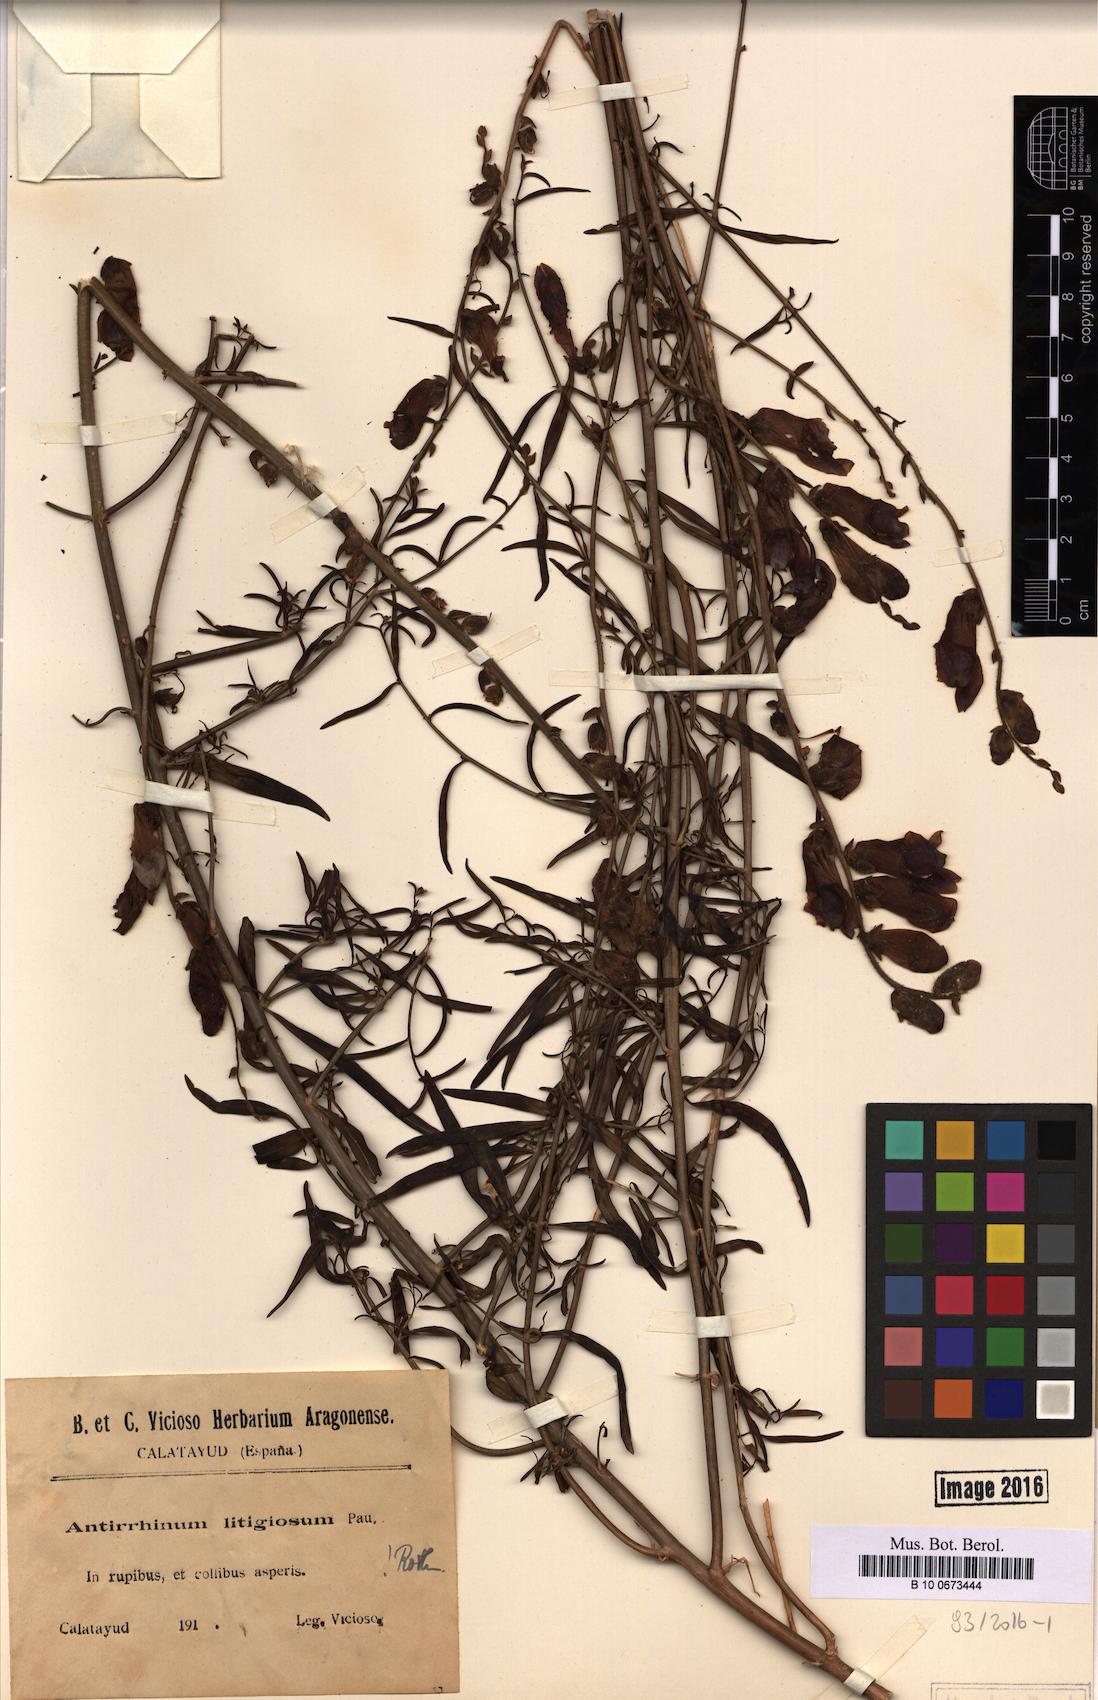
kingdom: Plantae
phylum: Tracheophyta
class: Magnoliopsida
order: Lamiales
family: Plantaginaceae
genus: Antirrhinum
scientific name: Antirrhinum litigiosum
